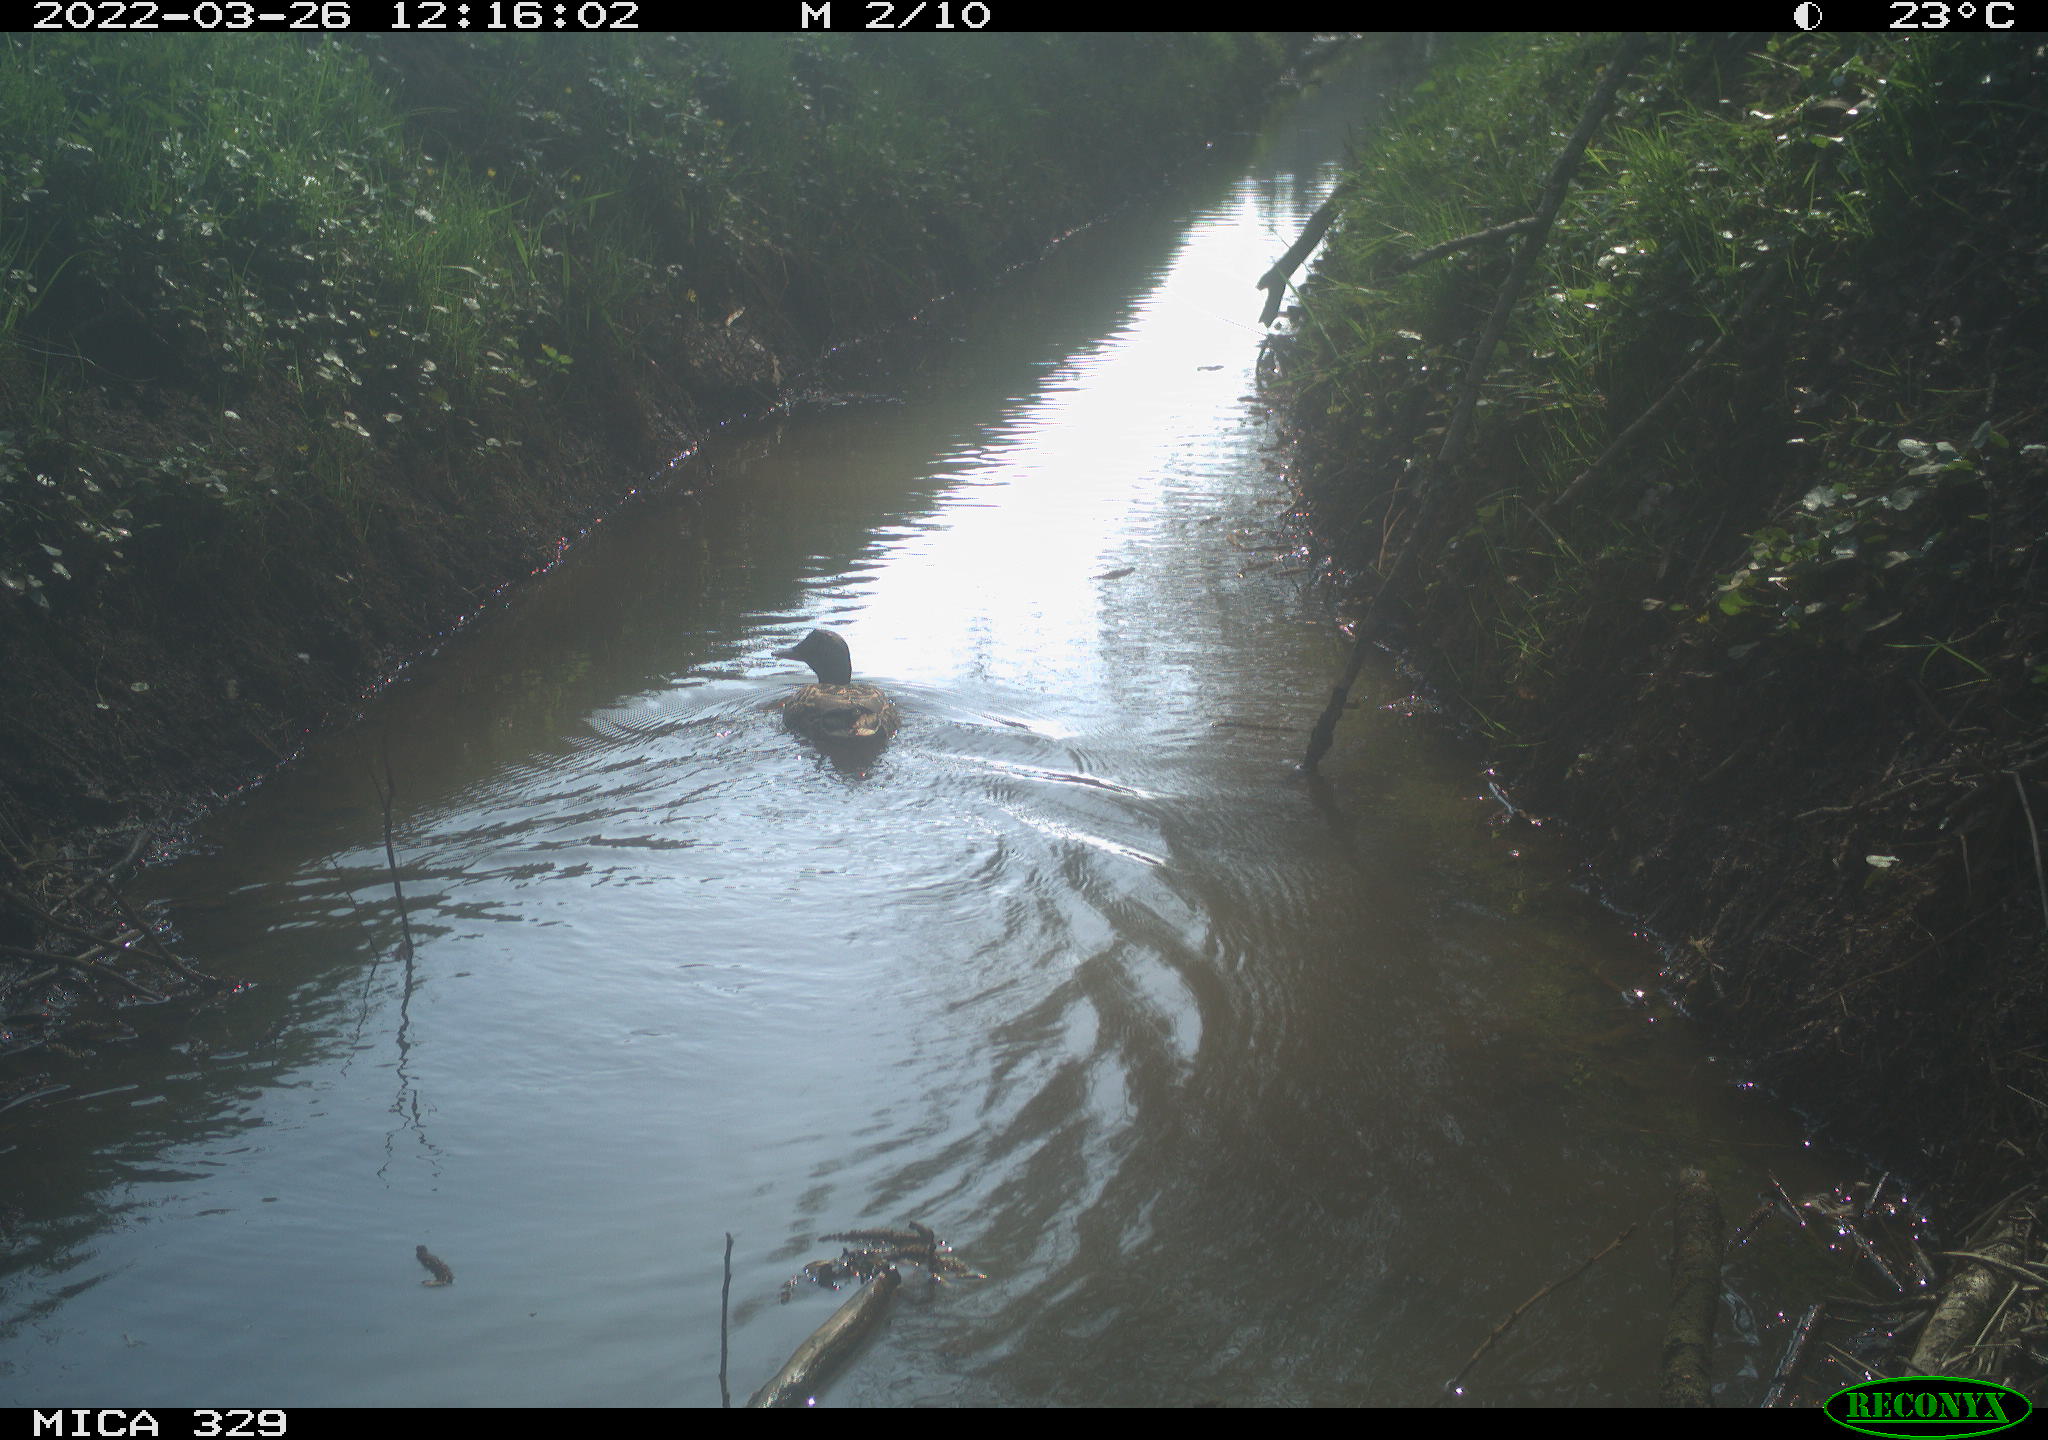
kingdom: Animalia
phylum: Chordata
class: Aves
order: Anseriformes
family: Anatidae
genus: Anas
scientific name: Anas platyrhynchos
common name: Mallard
